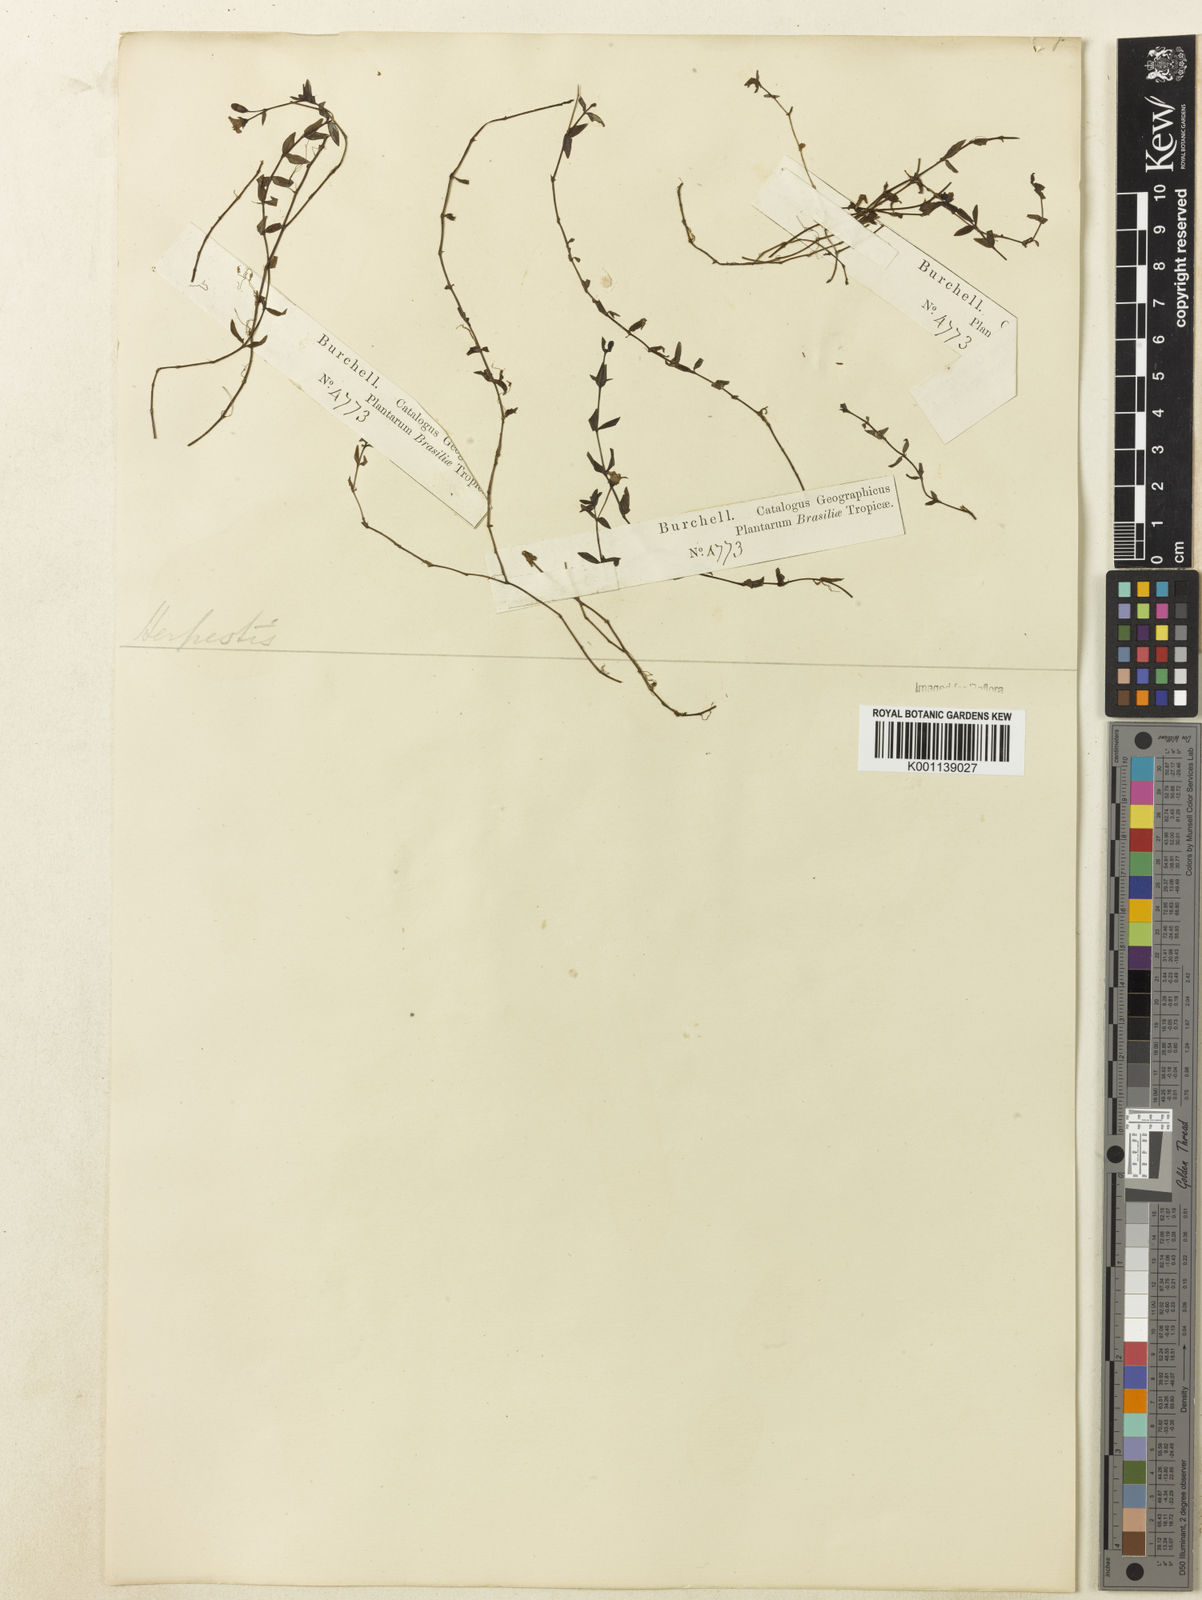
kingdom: Plantae
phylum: Tracheophyta
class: Magnoliopsida
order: Lamiales
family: Plantaginaceae
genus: Bacopa
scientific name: Bacopa
